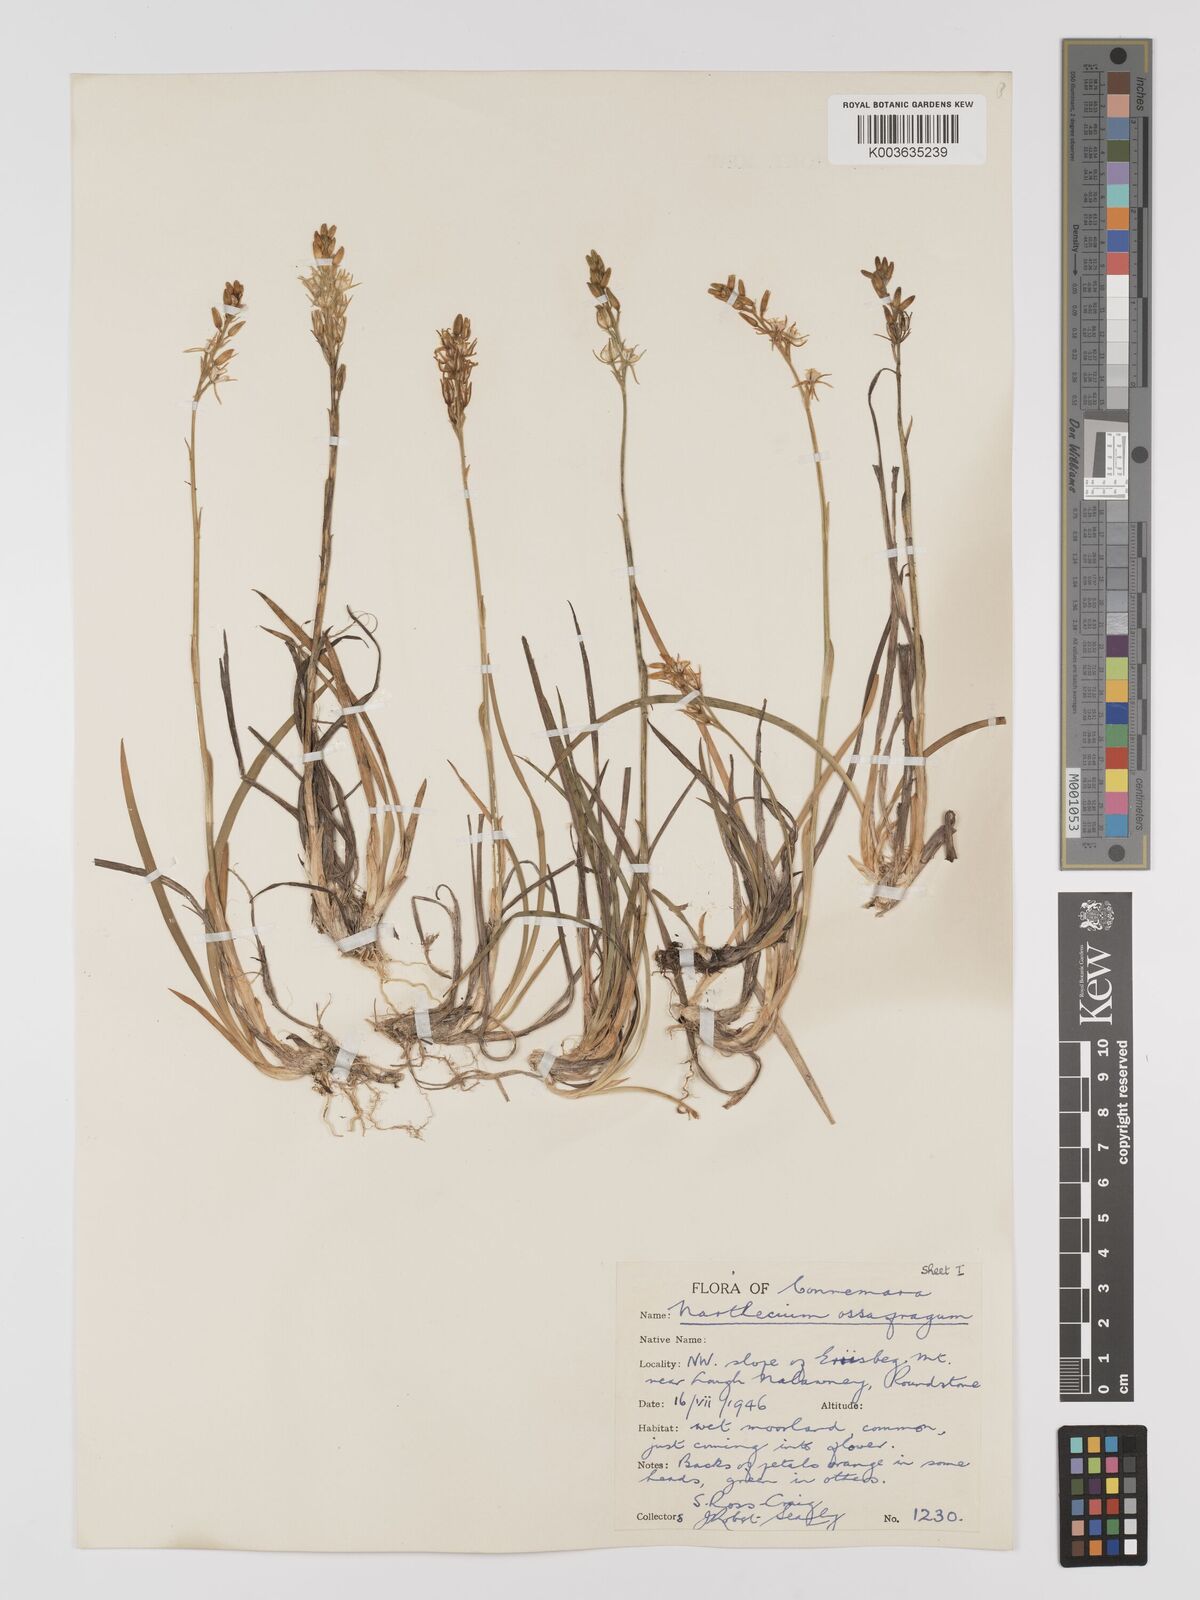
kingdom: Plantae
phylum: Tracheophyta
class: Liliopsida
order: Dioscoreales
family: Nartheciaceae
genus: Narthecium
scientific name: Narthecium ossifragum
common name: Bog asphodel
